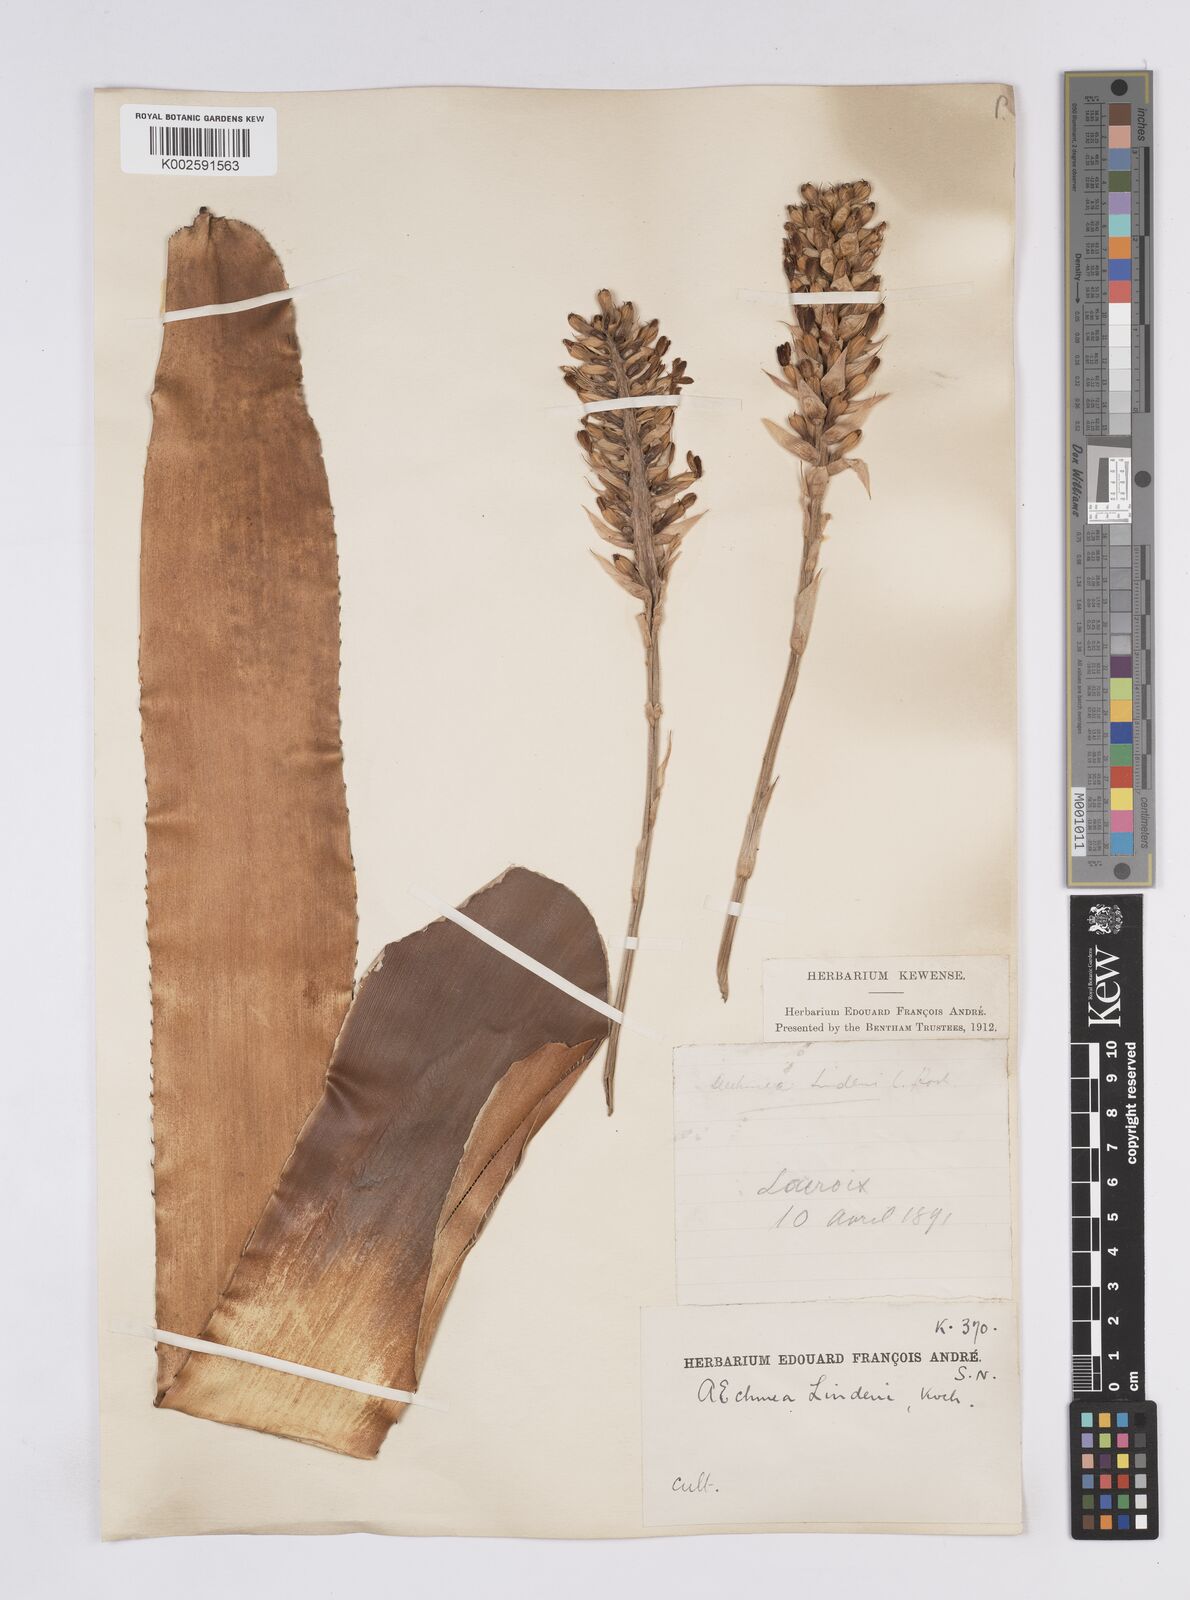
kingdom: Plantae
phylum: Tracheophyta
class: Liliopsida
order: Poales
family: Bromeliaceae
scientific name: Bromeliaceae
